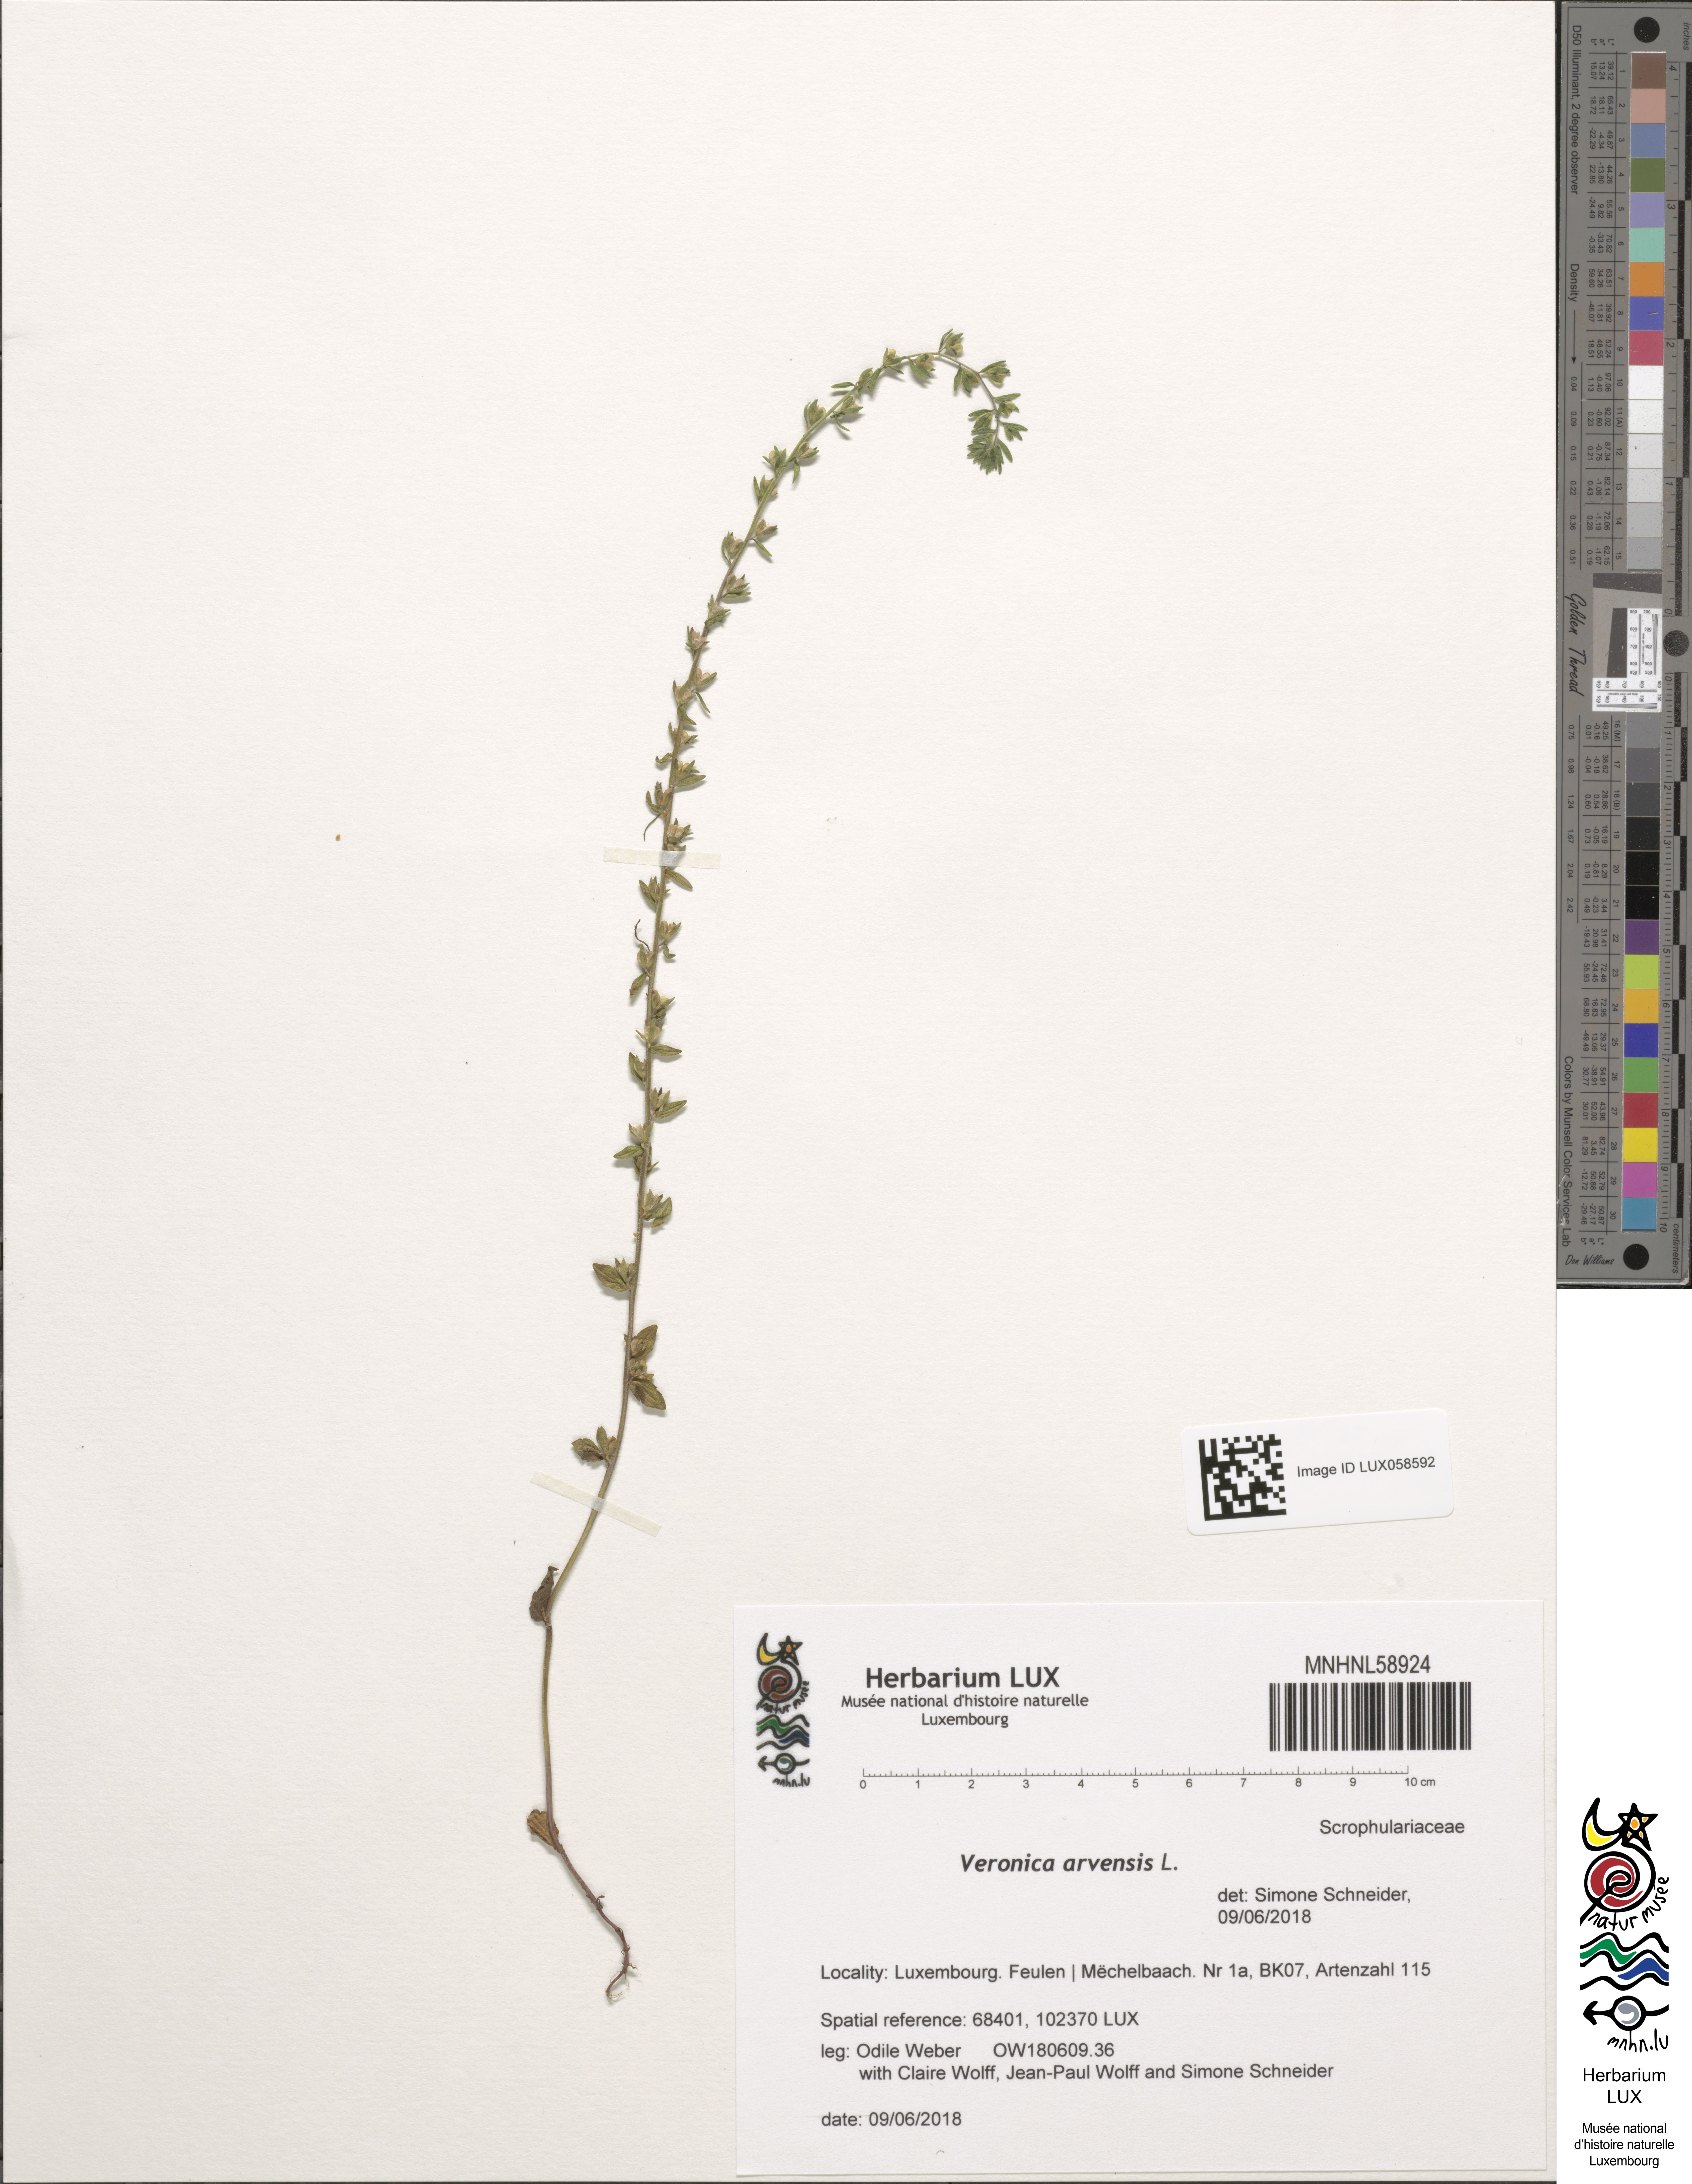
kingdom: Plantae
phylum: Tracheophyta
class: Magnoliopsida
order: Lamiales
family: Plantaginaceae
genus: Veronica
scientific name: Veronica arvensis
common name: Corn speedwell
